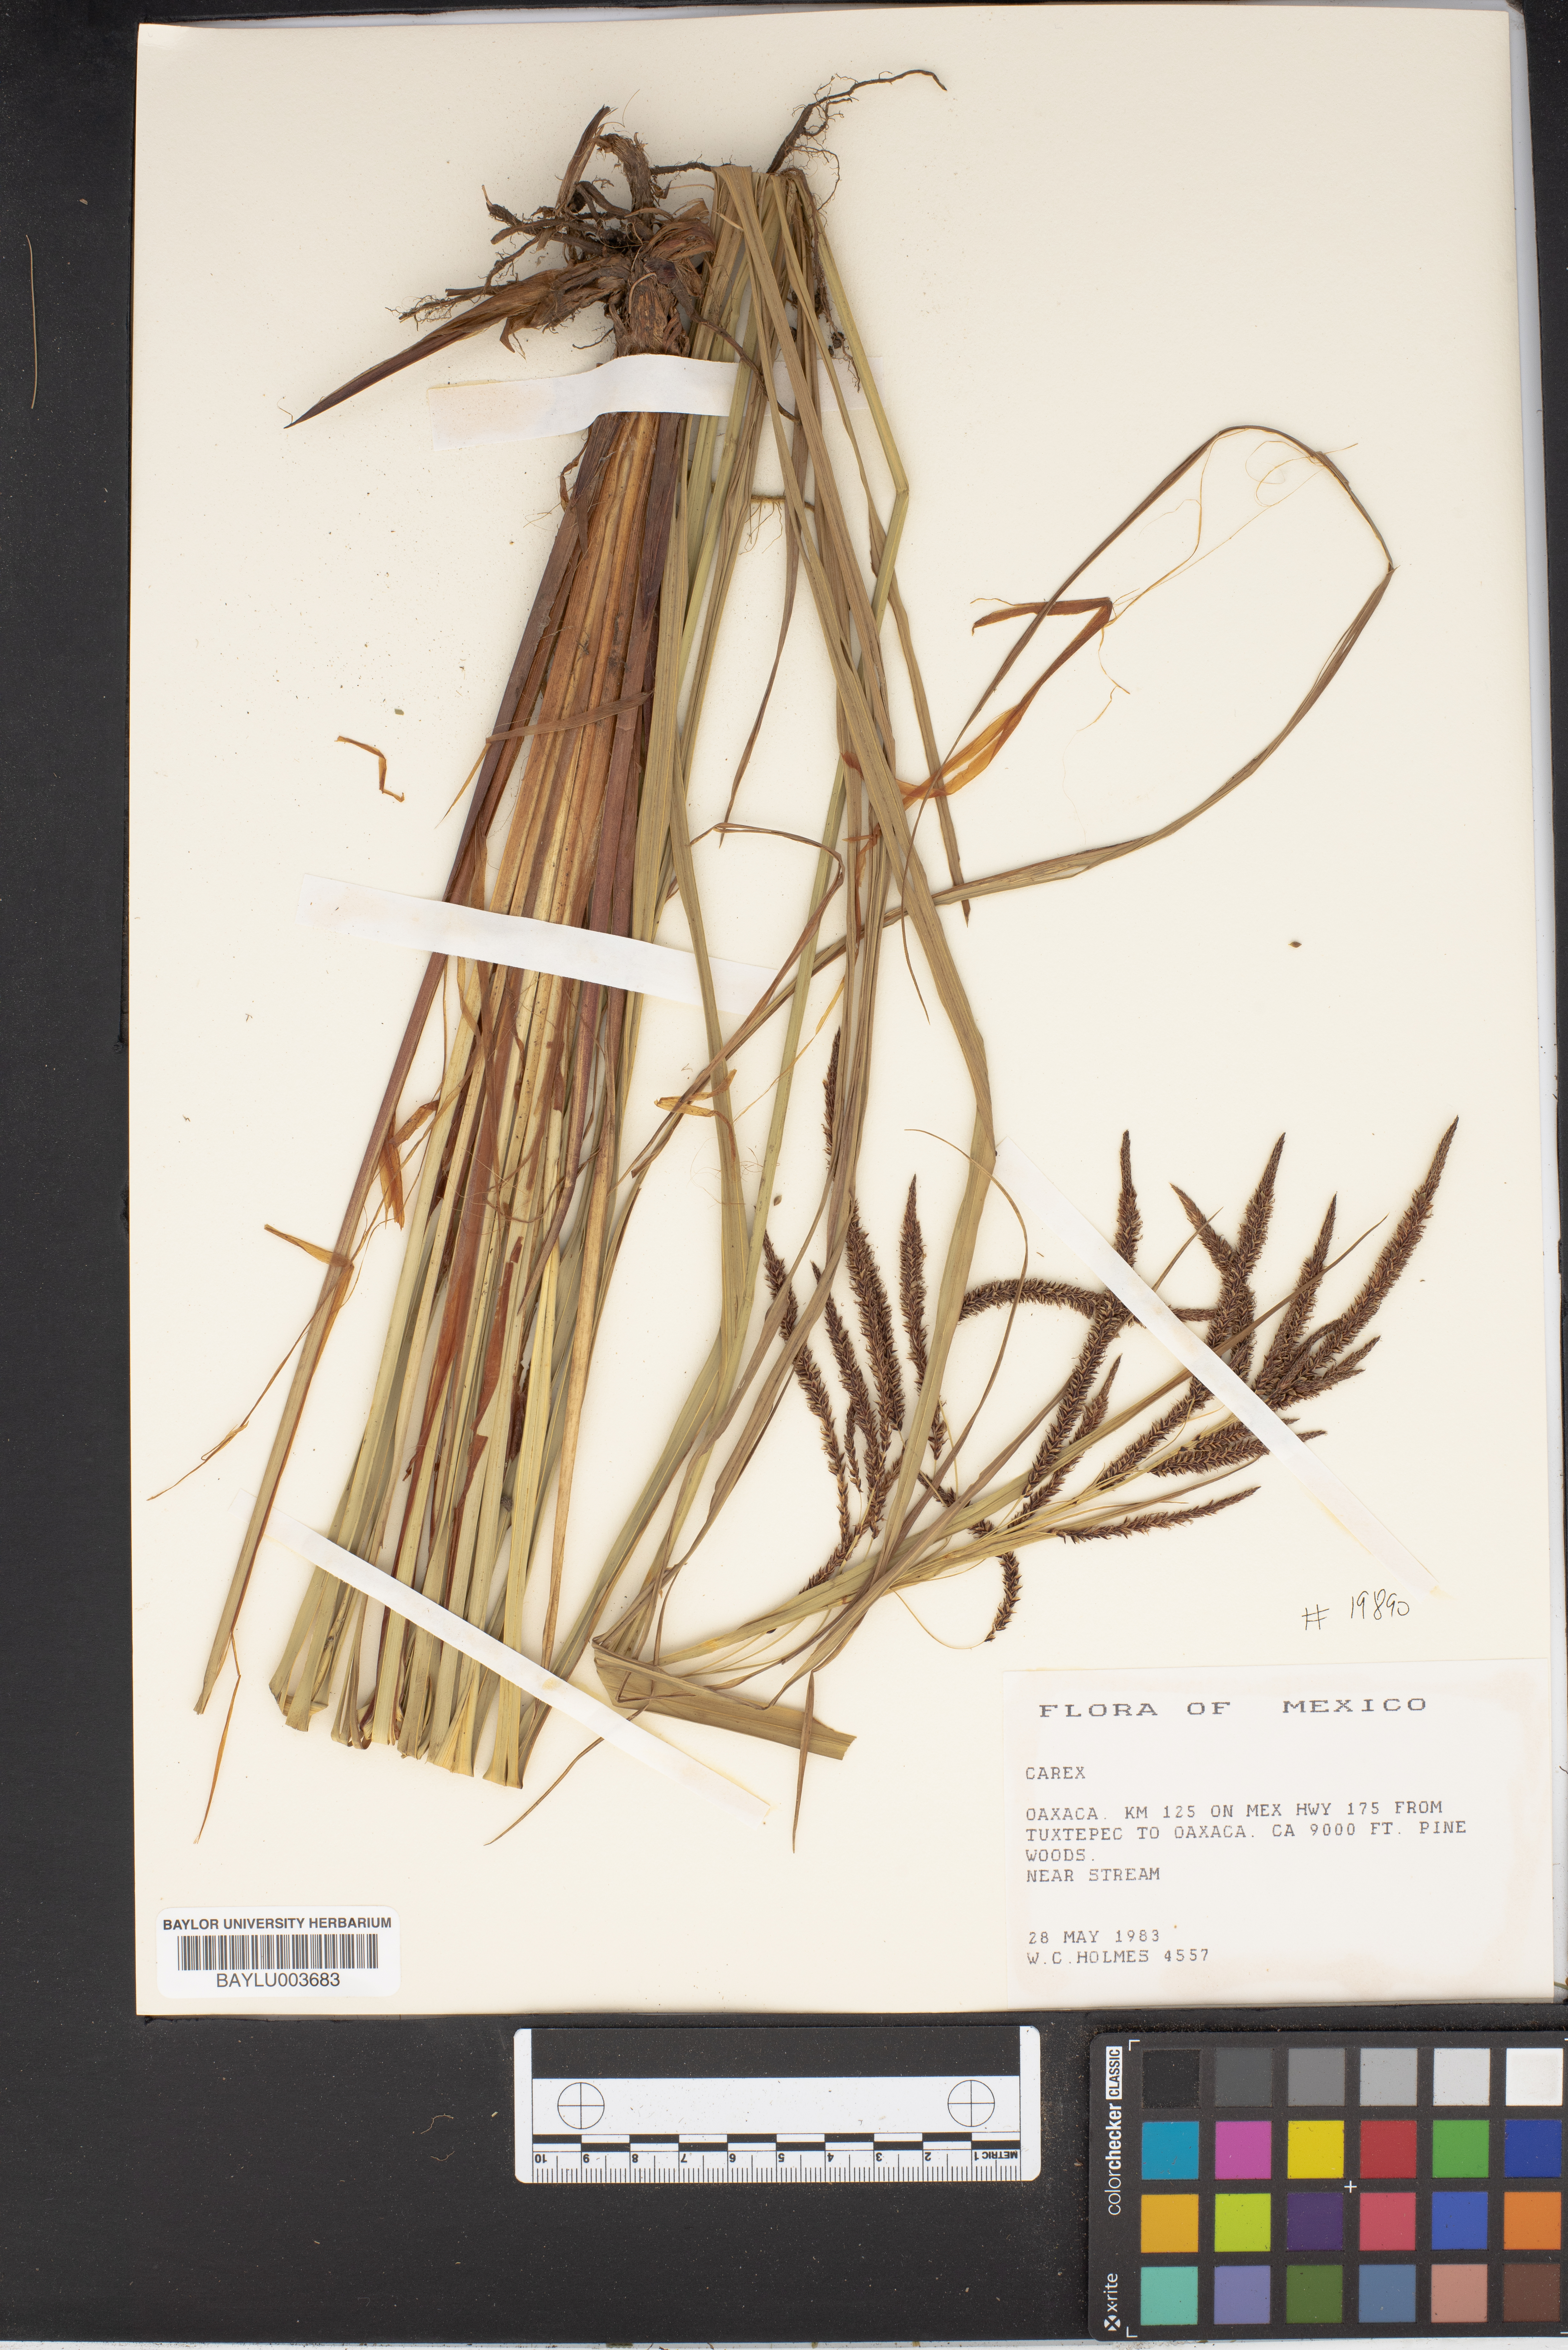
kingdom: Plantae
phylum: Tracheophyta
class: Liliopsida
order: Poales
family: Cyperaceae
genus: Carex
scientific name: Carex
